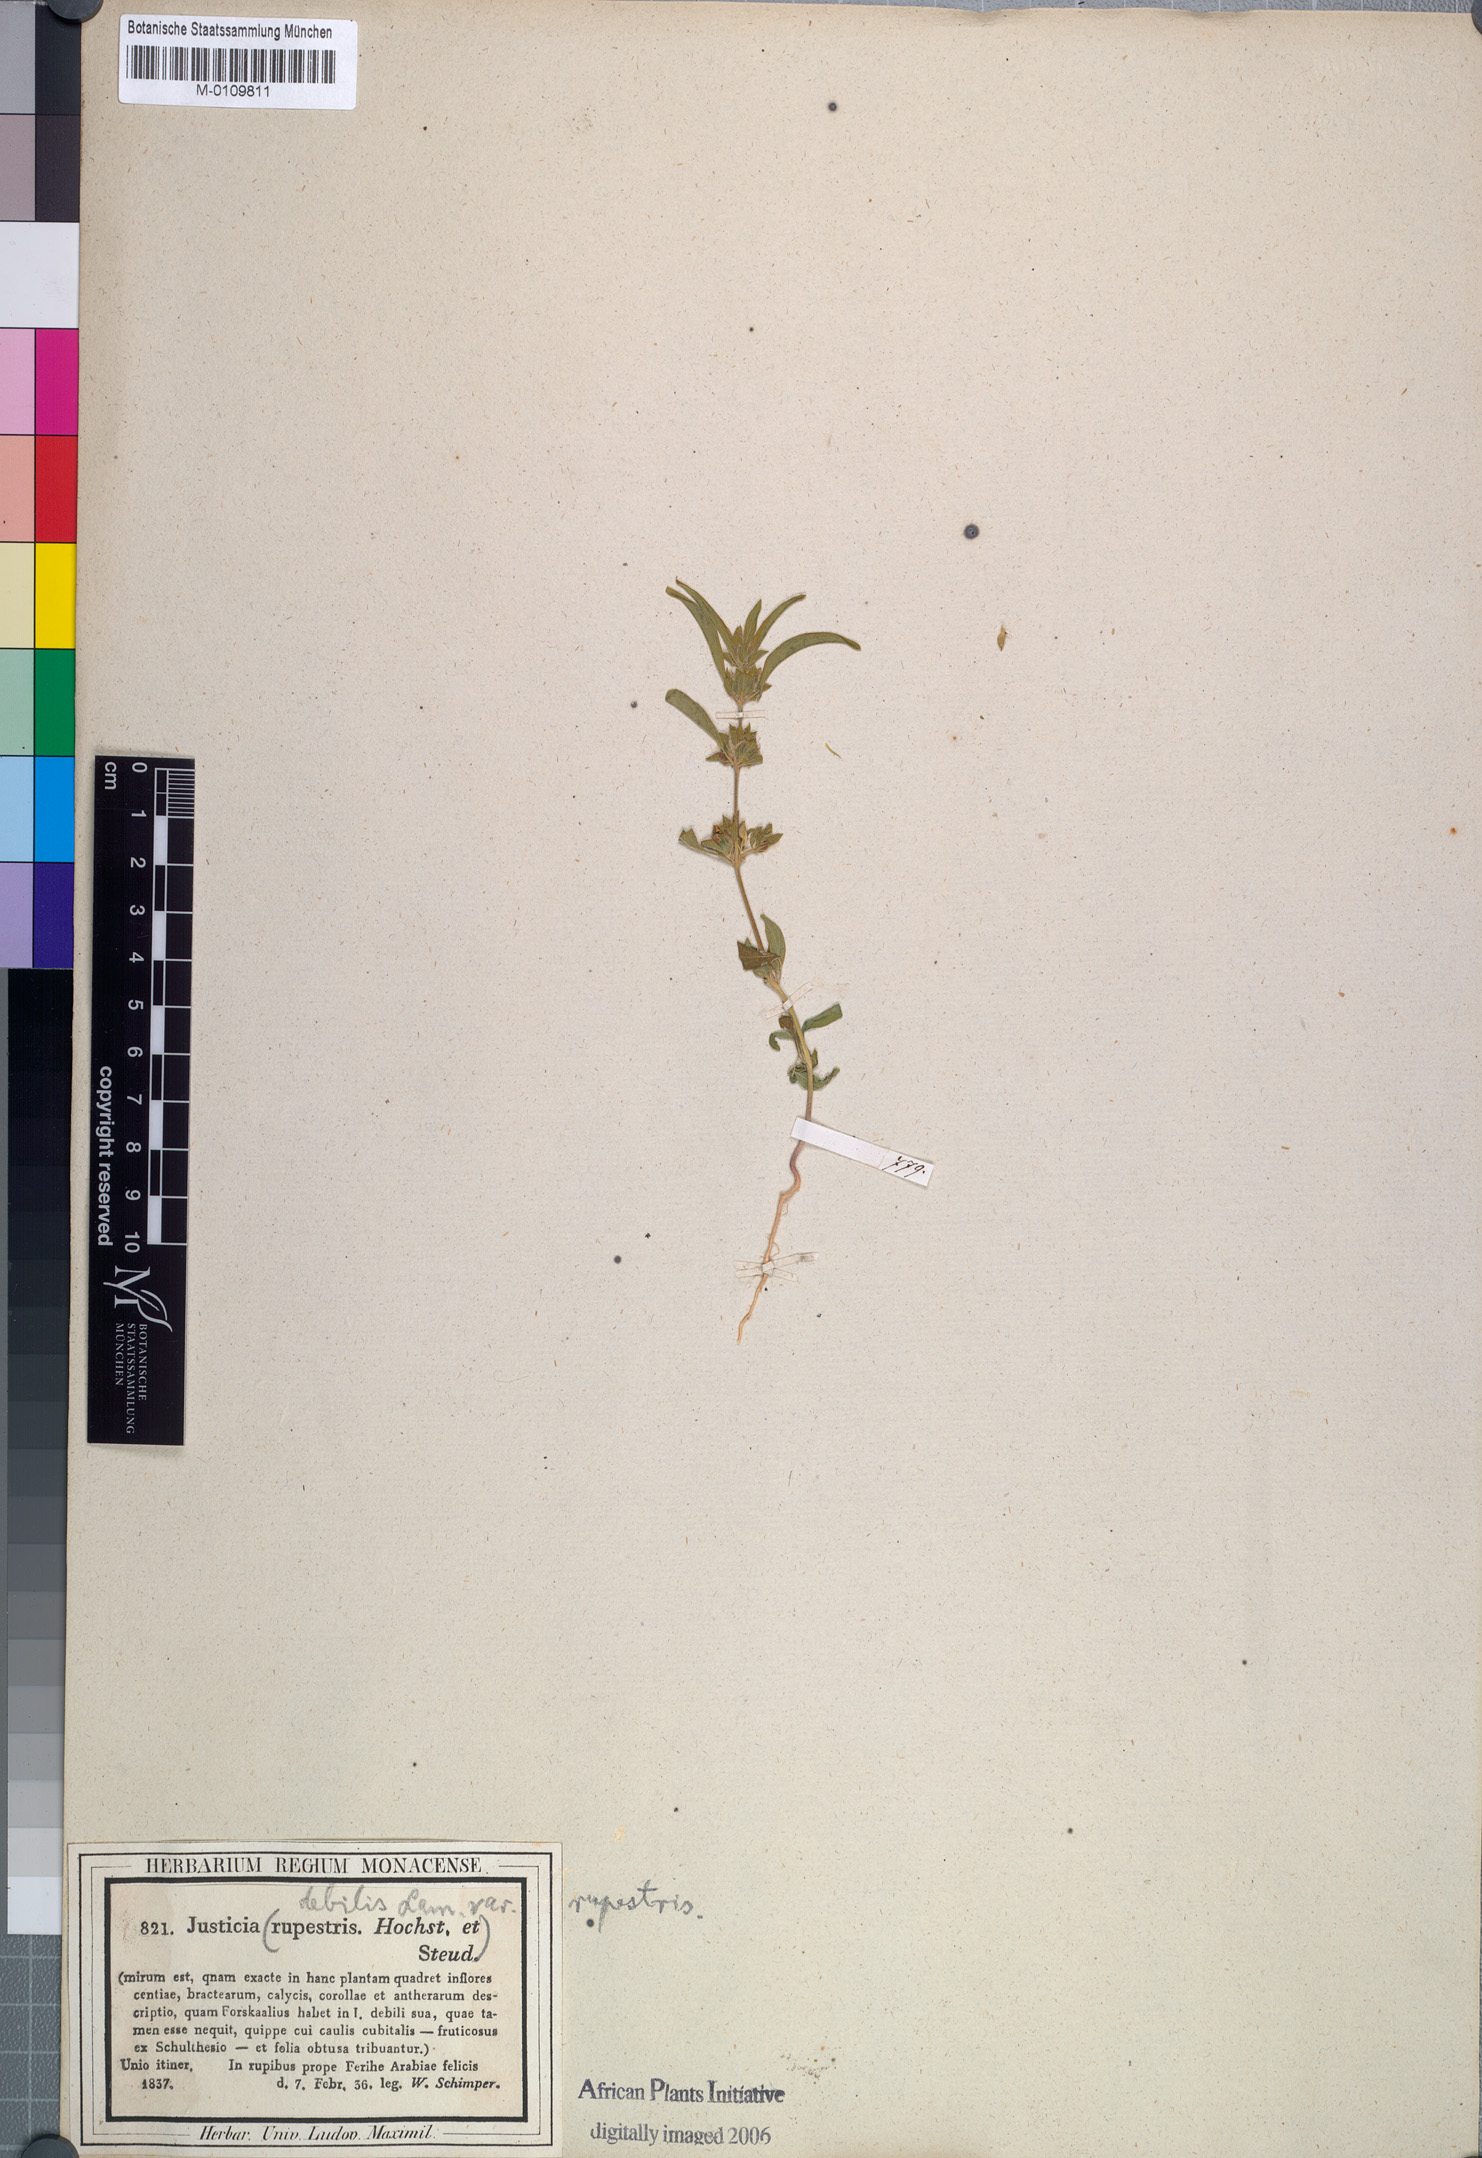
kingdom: Plantae
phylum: Tracheophyta
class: Magnoliopsida
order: Lamiales
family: Acanthaceae
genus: Monechma
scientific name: Monechma debile
